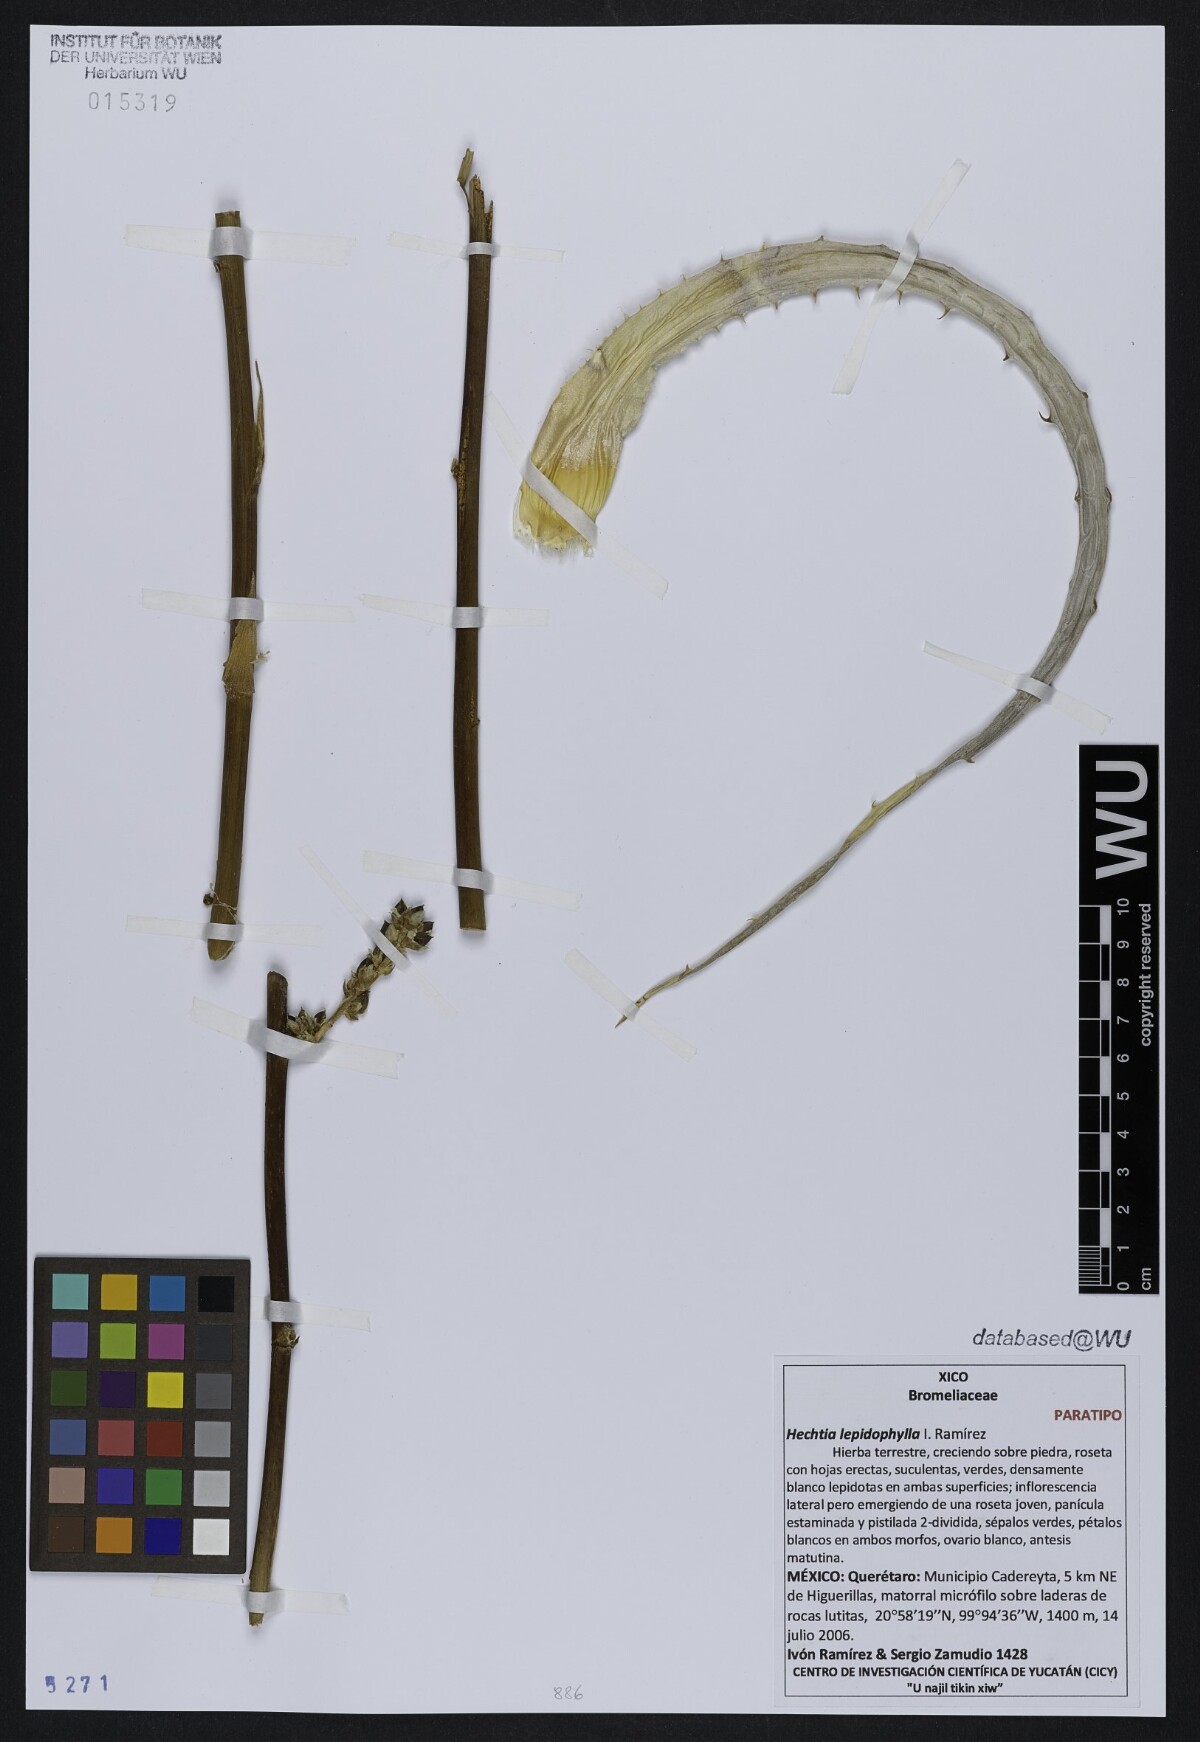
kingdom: Plantae
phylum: Tracheophyta
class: Liliopsida
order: Poales
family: Bromeliaceae
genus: Hechtia
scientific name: Hechtia lepidophylla
